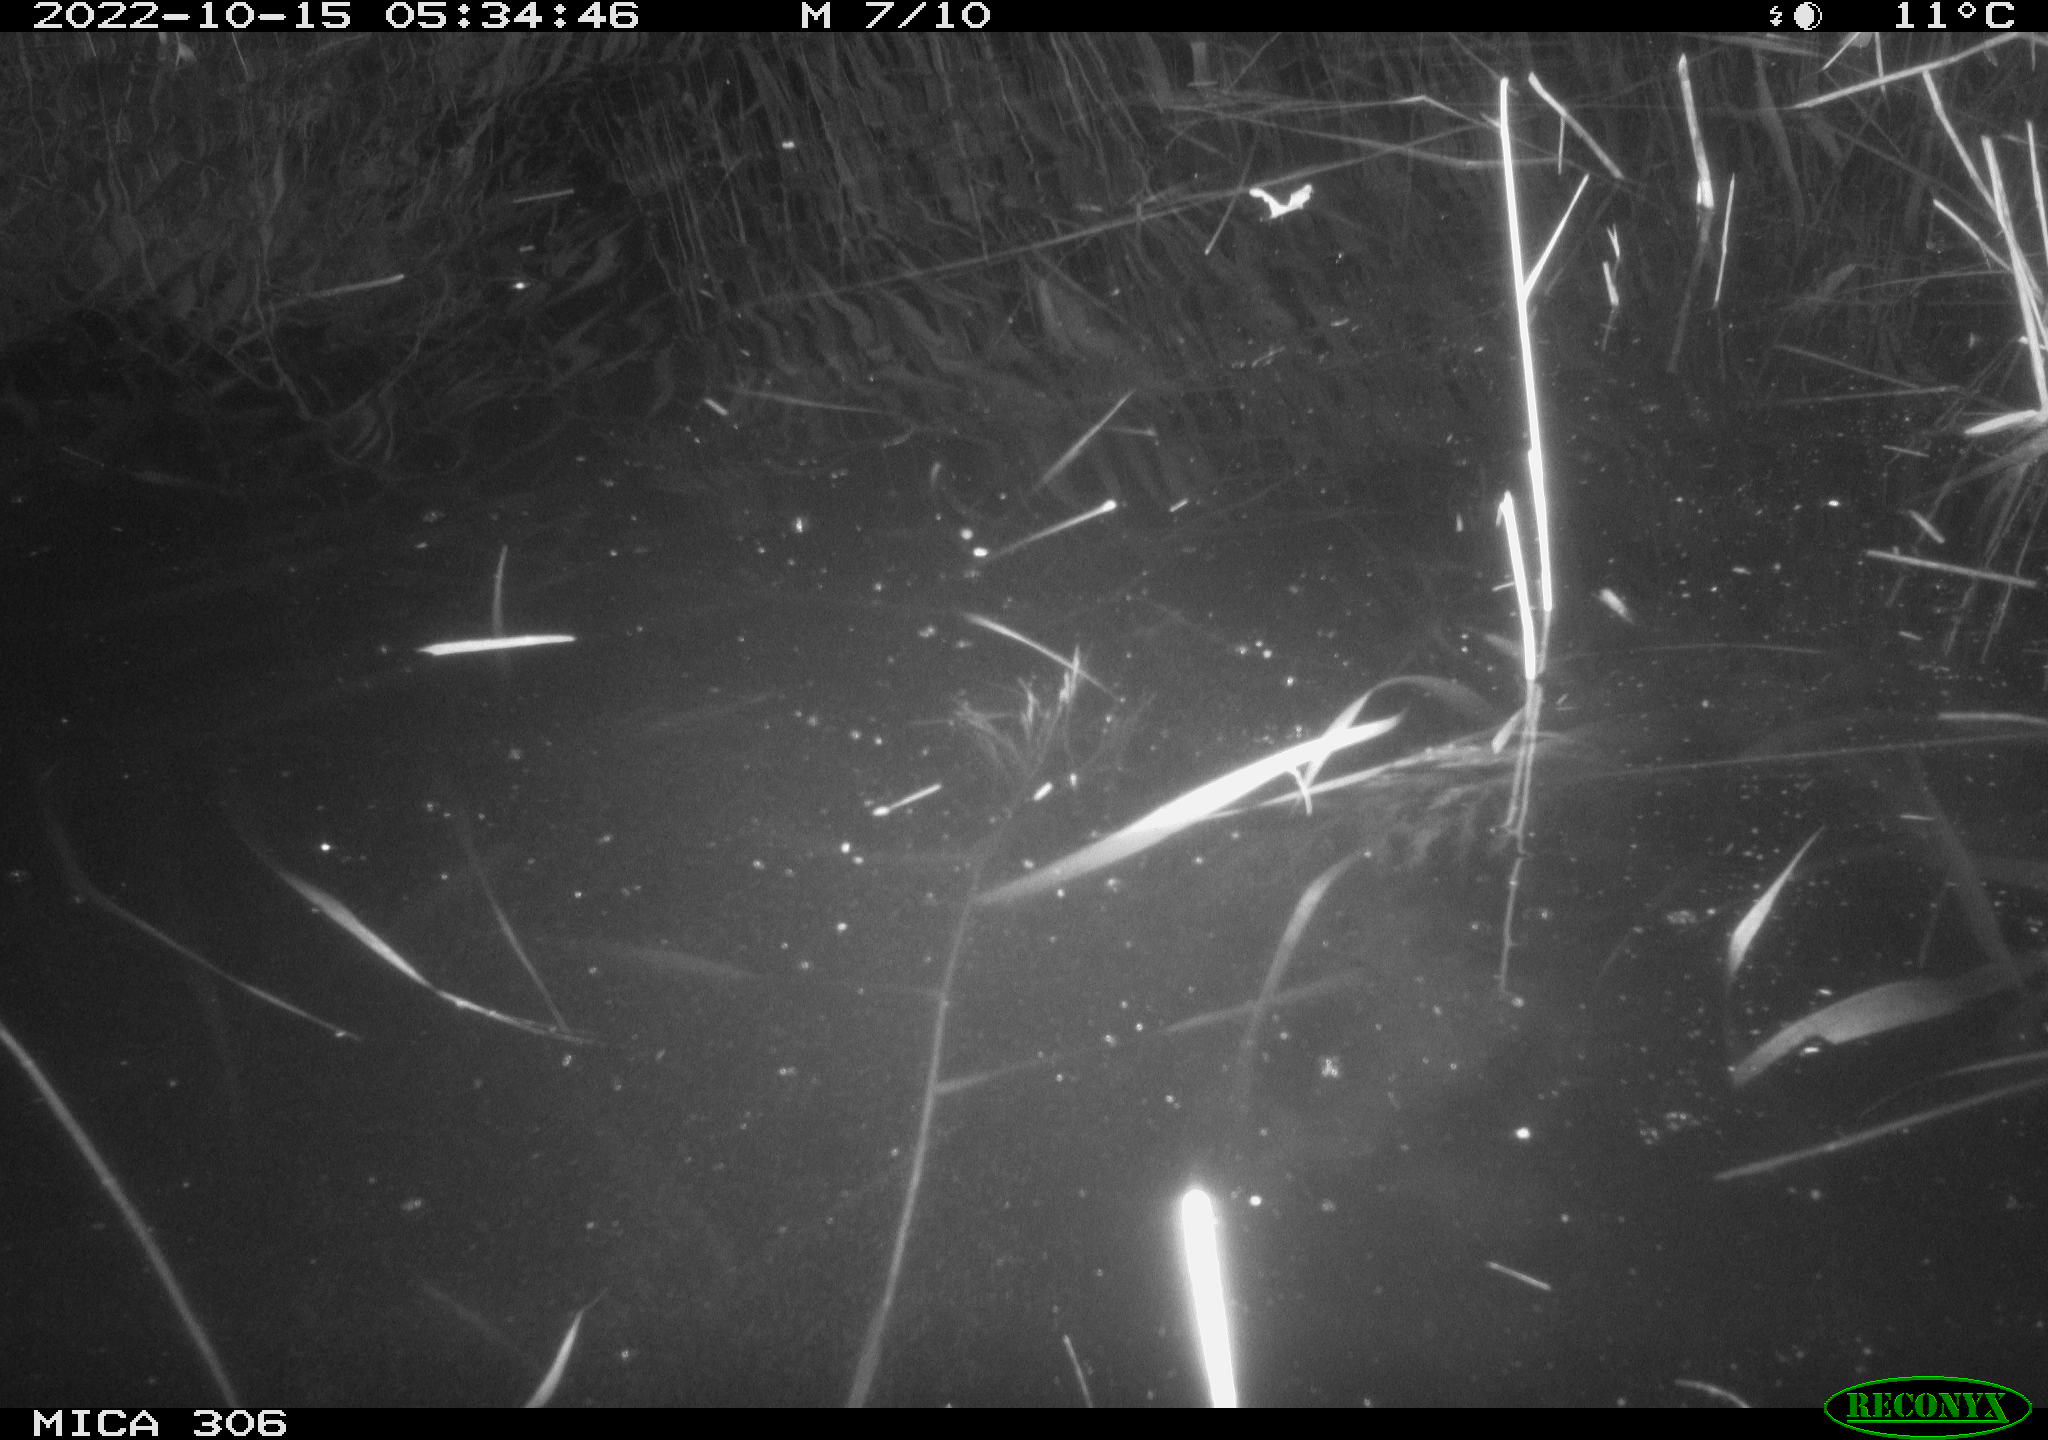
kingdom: Animalia
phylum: Chordata
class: Mammalia
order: Rodentia
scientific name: Rodentia
